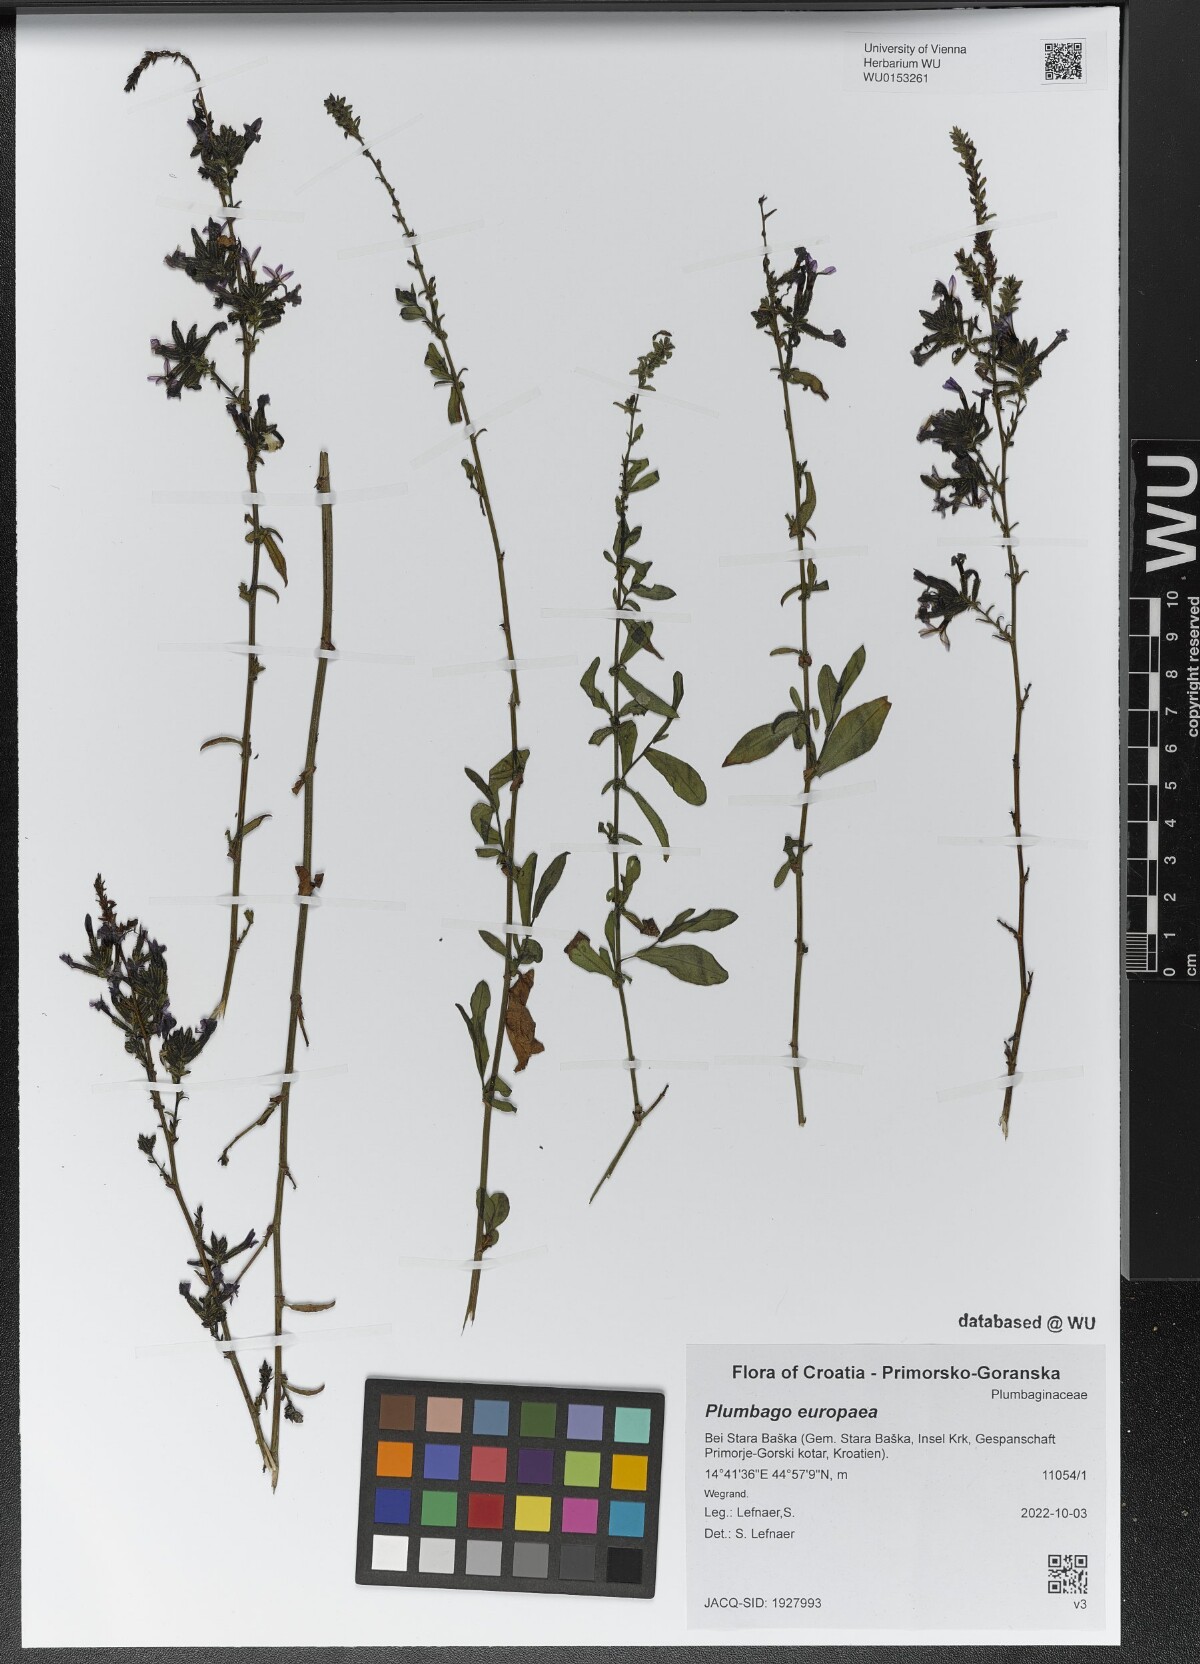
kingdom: Plantae
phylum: Tracheophyta
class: Magnoliopsida
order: Caryophyllales
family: Plumbaginaceae
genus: Plumbago
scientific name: Plumbago europaea
